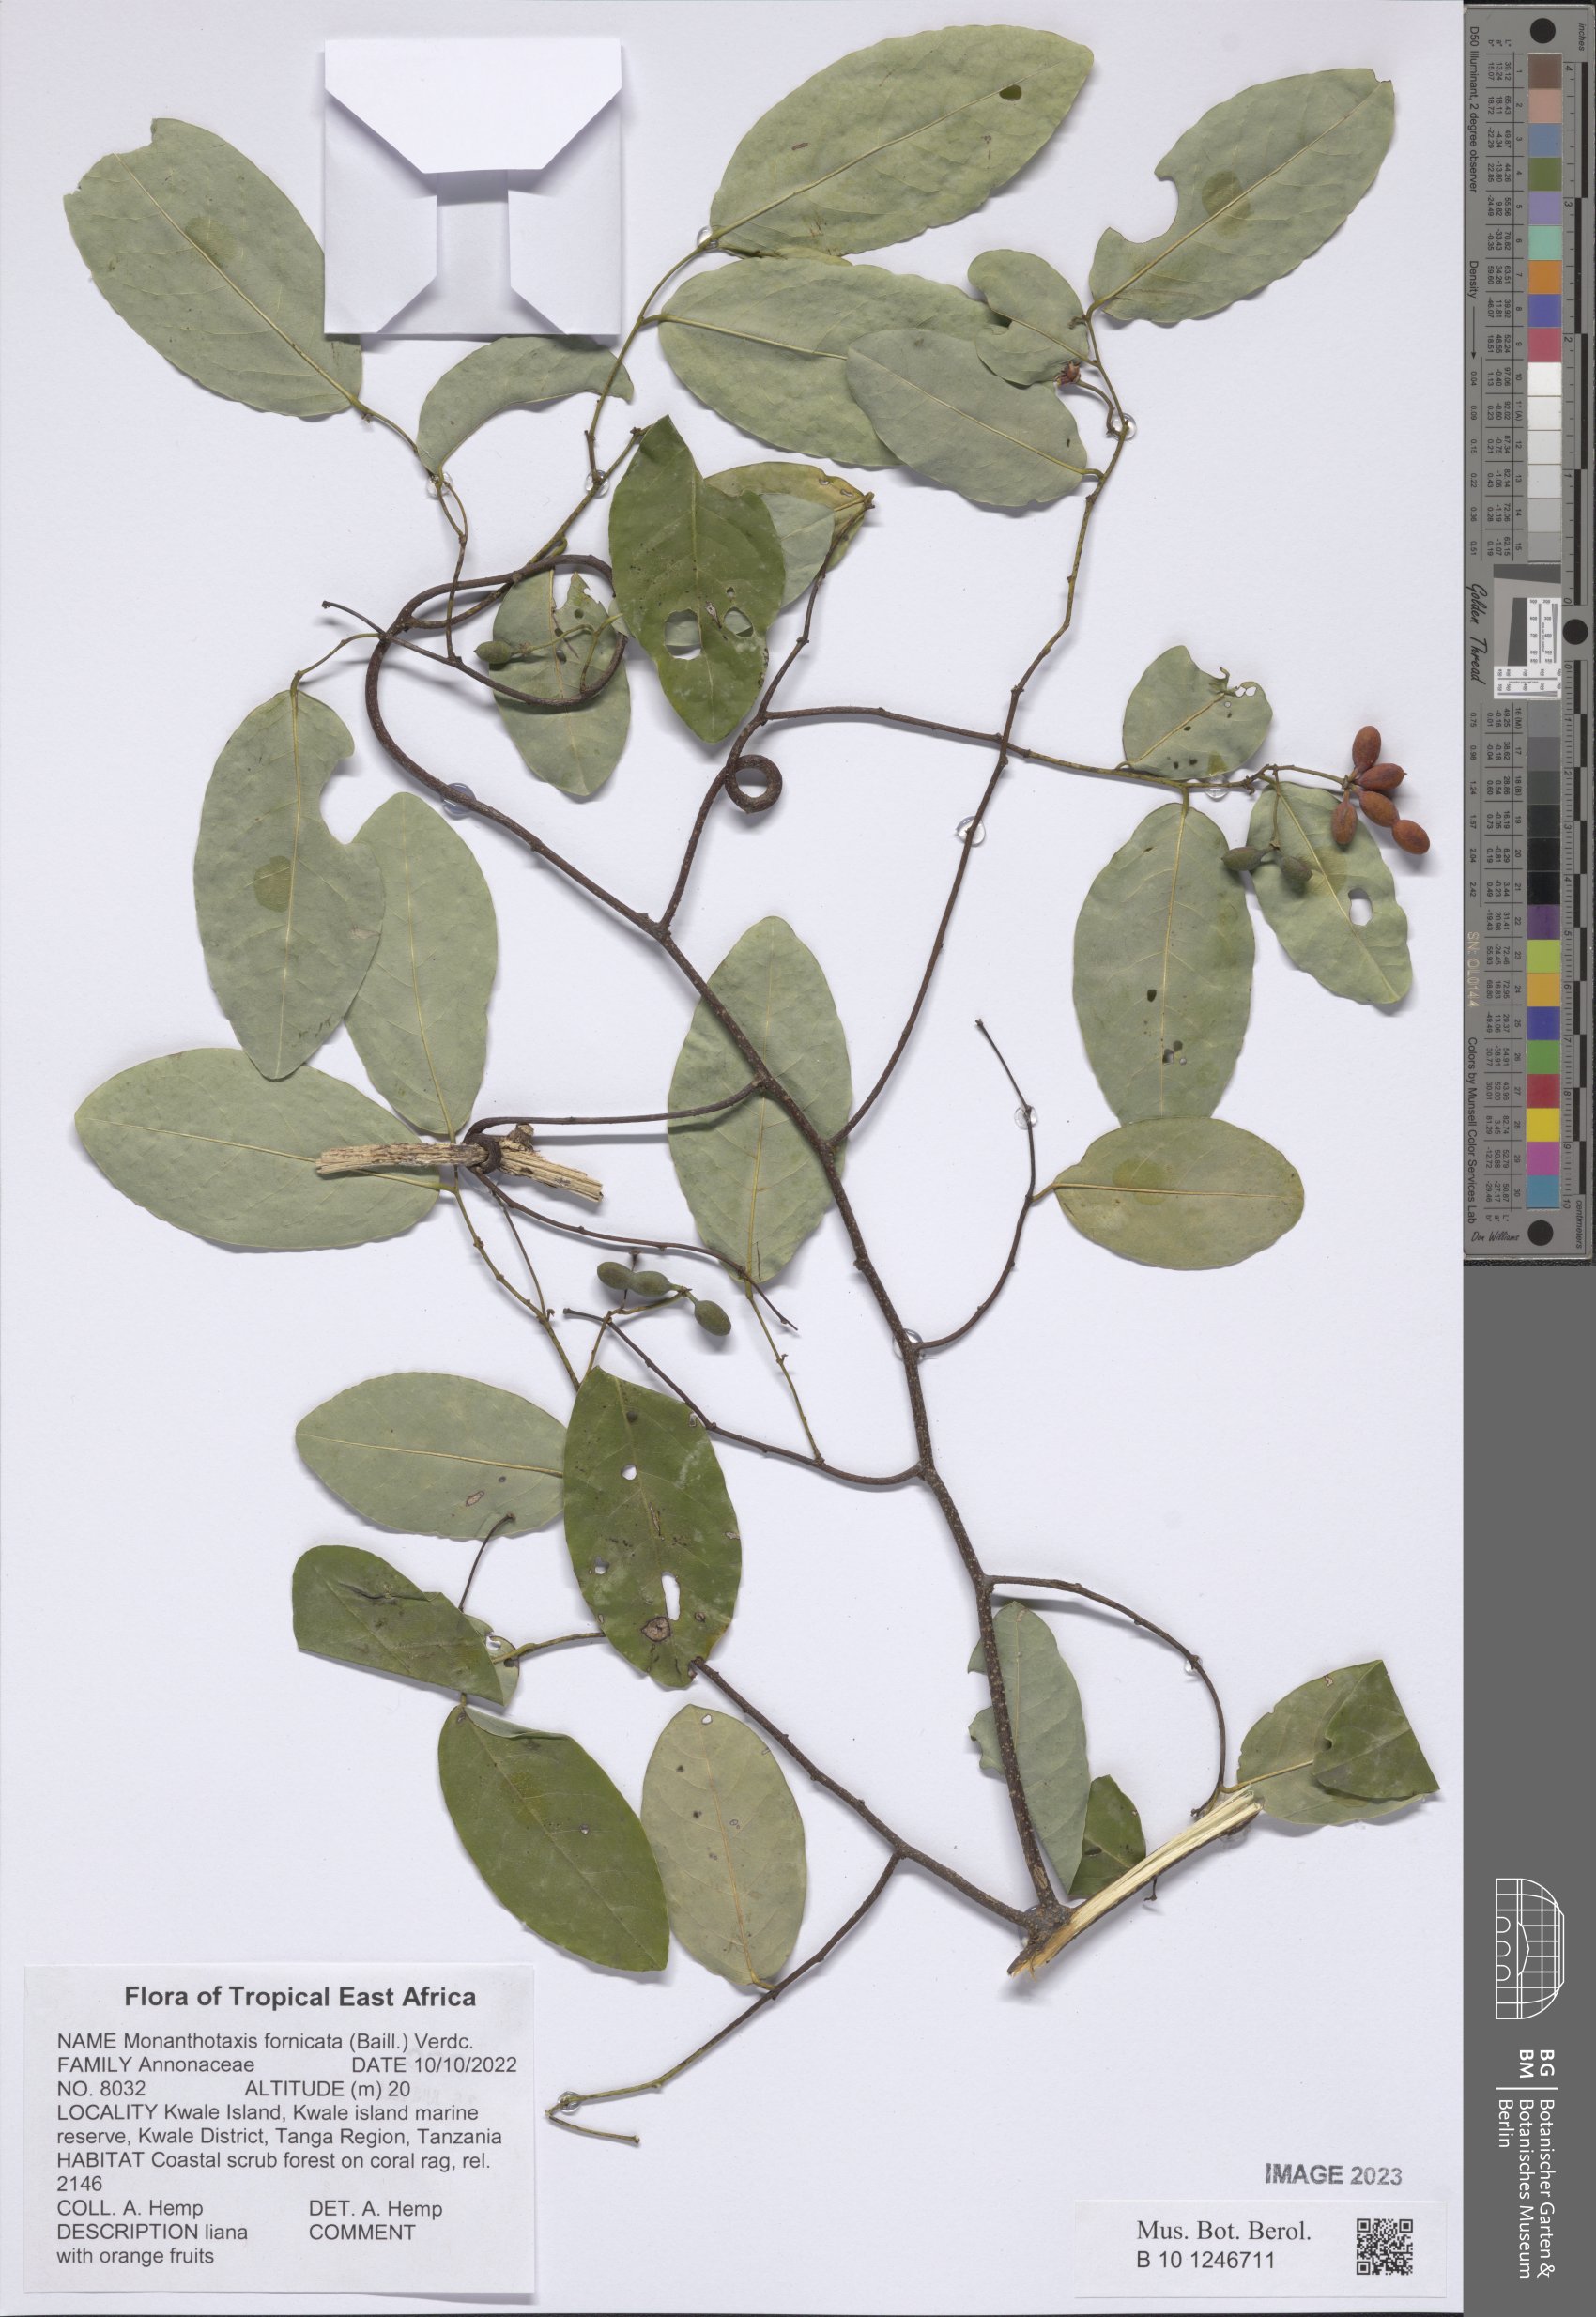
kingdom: Plantae
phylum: Tracheophyta
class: Magnoliopsida
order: Magnoliales
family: Annonaceae
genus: Monanthotaxis
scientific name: Monanthotaxis fornicata
